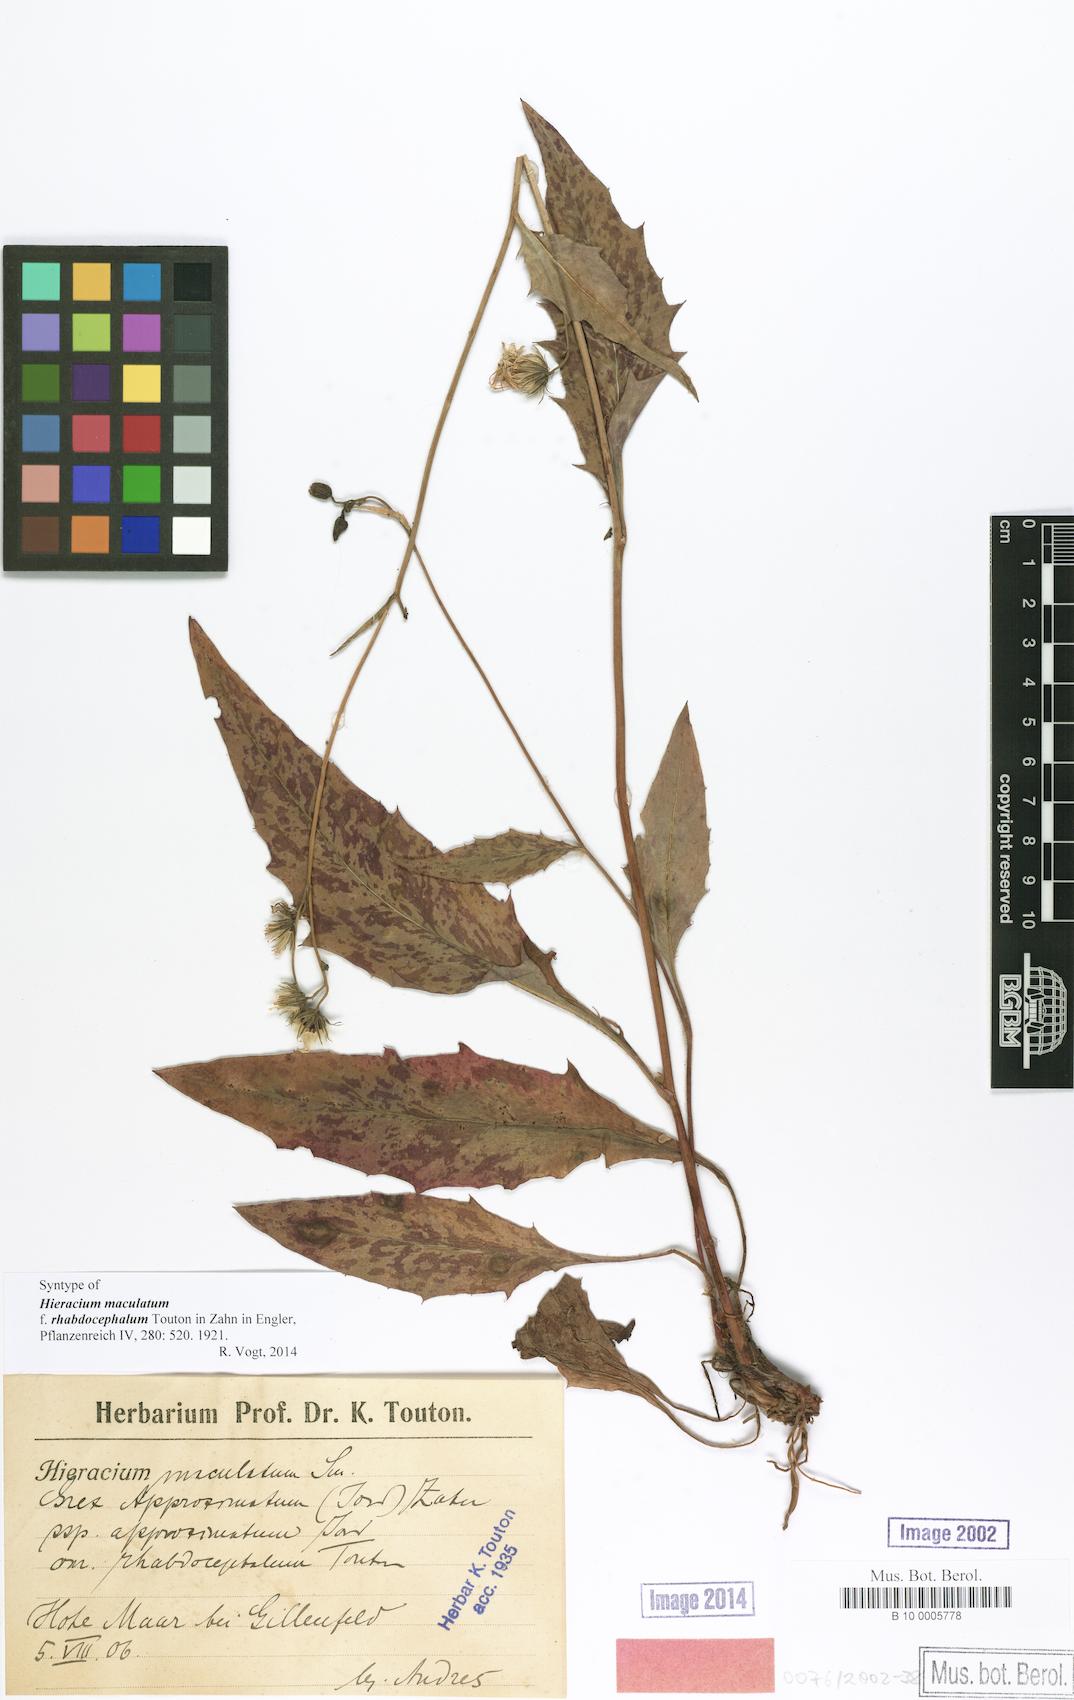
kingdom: Plantae
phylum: Tracheophyta
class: Magnoliopsida
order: Asterales
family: Asteraceae
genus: Hieracium
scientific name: Hieracium maculatum
